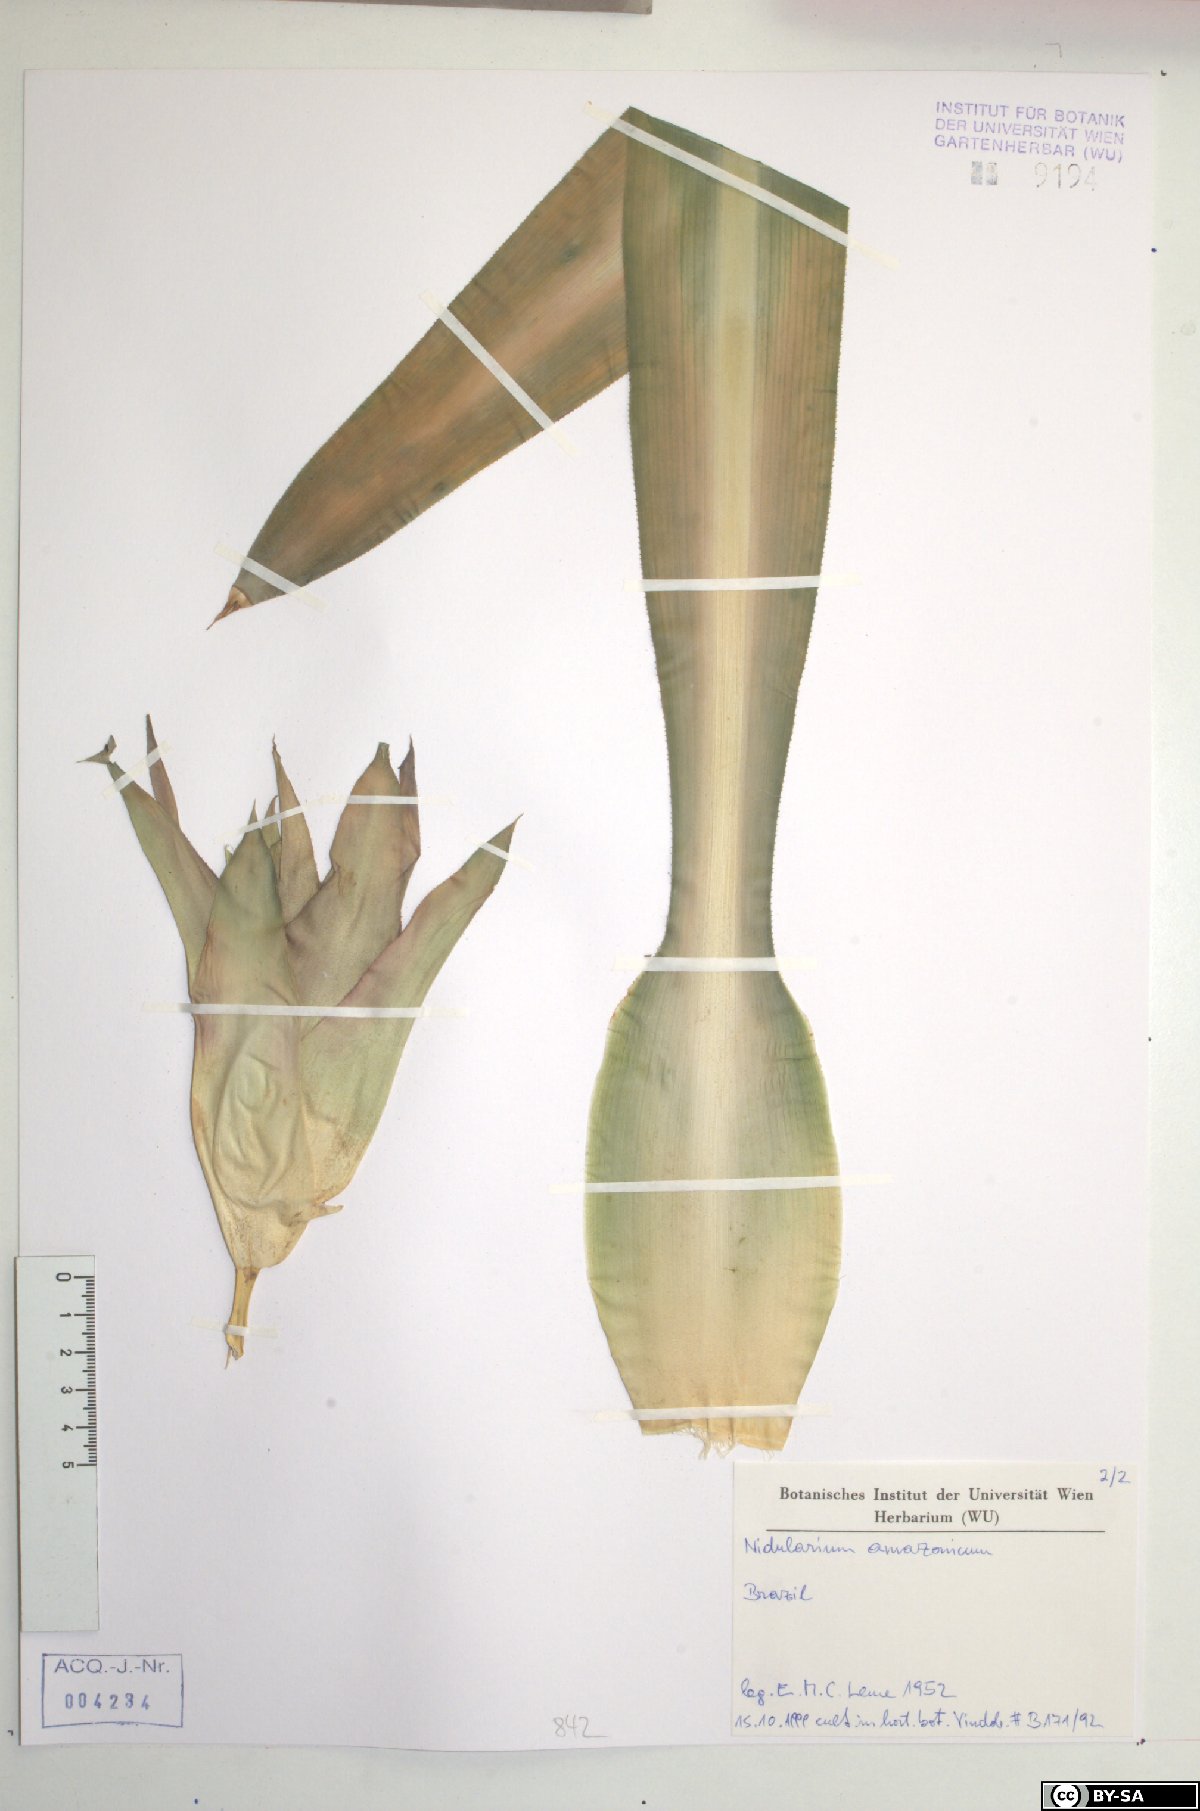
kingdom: Plantae
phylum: Tracheophyta
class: Liliopsida
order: Poales
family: Bromeliaceae
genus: Nidularium
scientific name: Nidularium amazonicum
